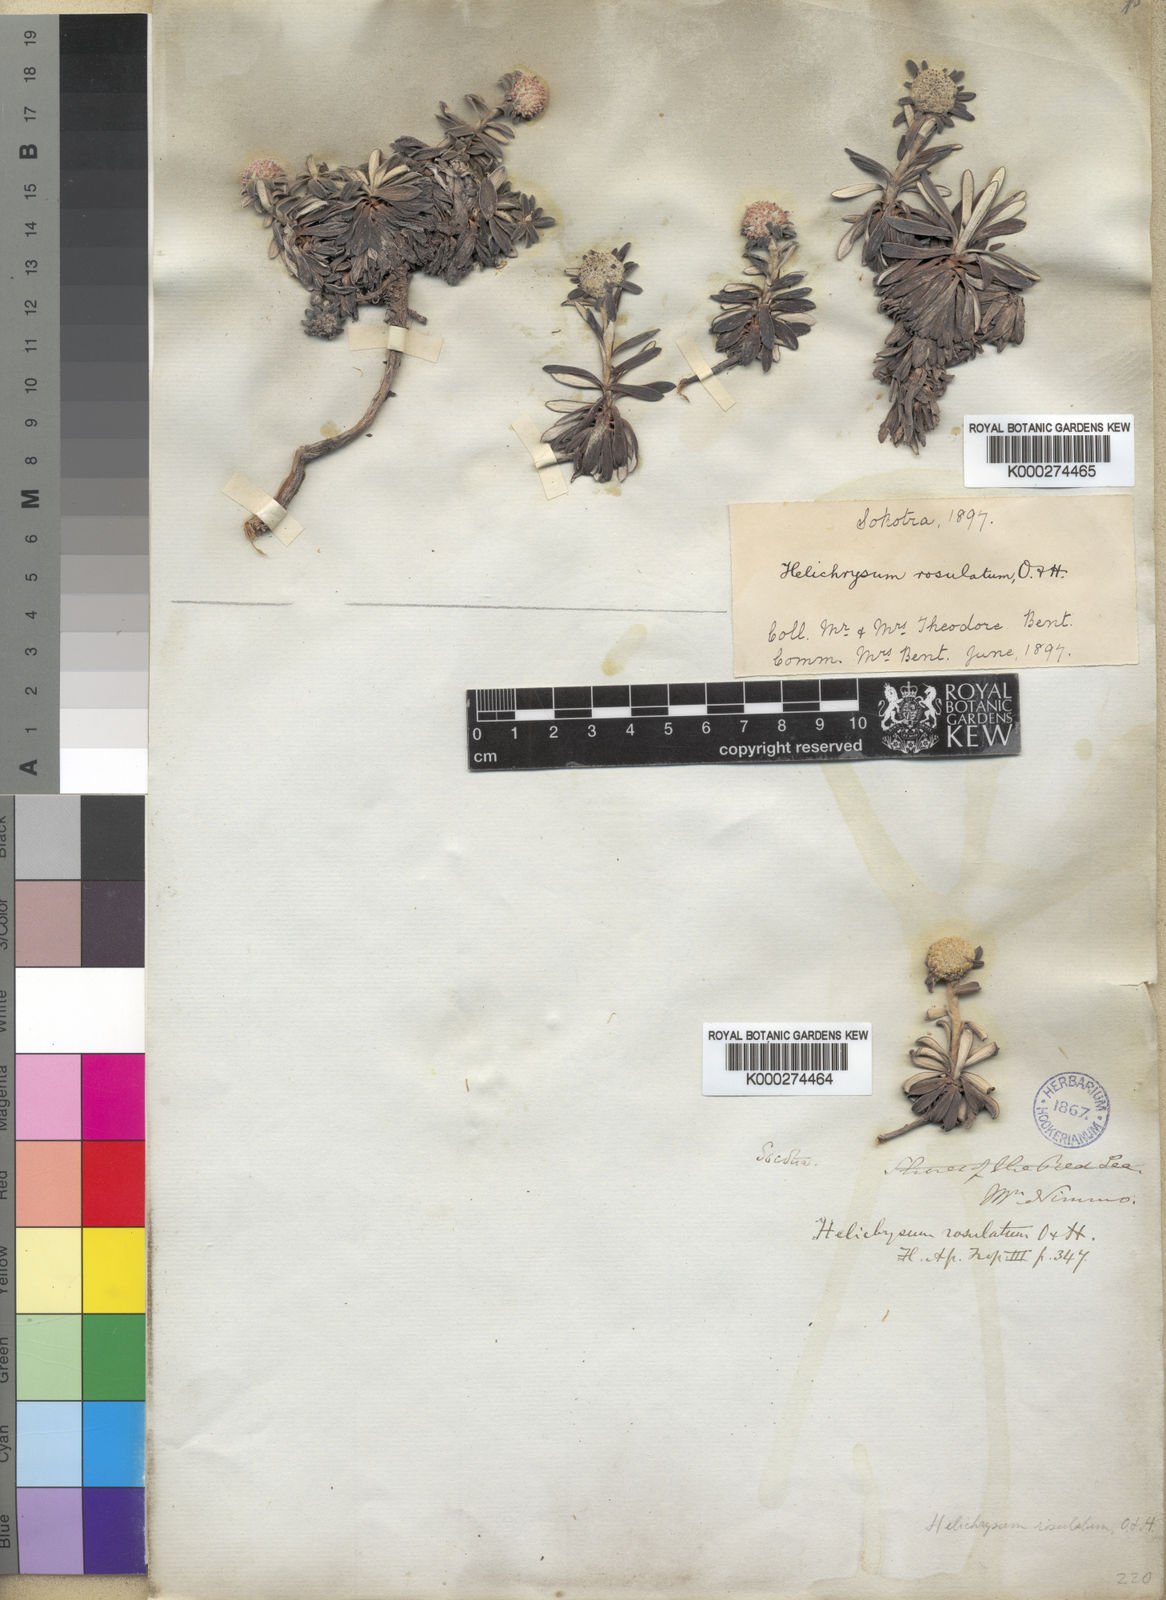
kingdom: Plantae
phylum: Tracheophyta
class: Magnoliopsida
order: Asterales
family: Asteraceae
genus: Libinhania
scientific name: Libinhania rosulata
